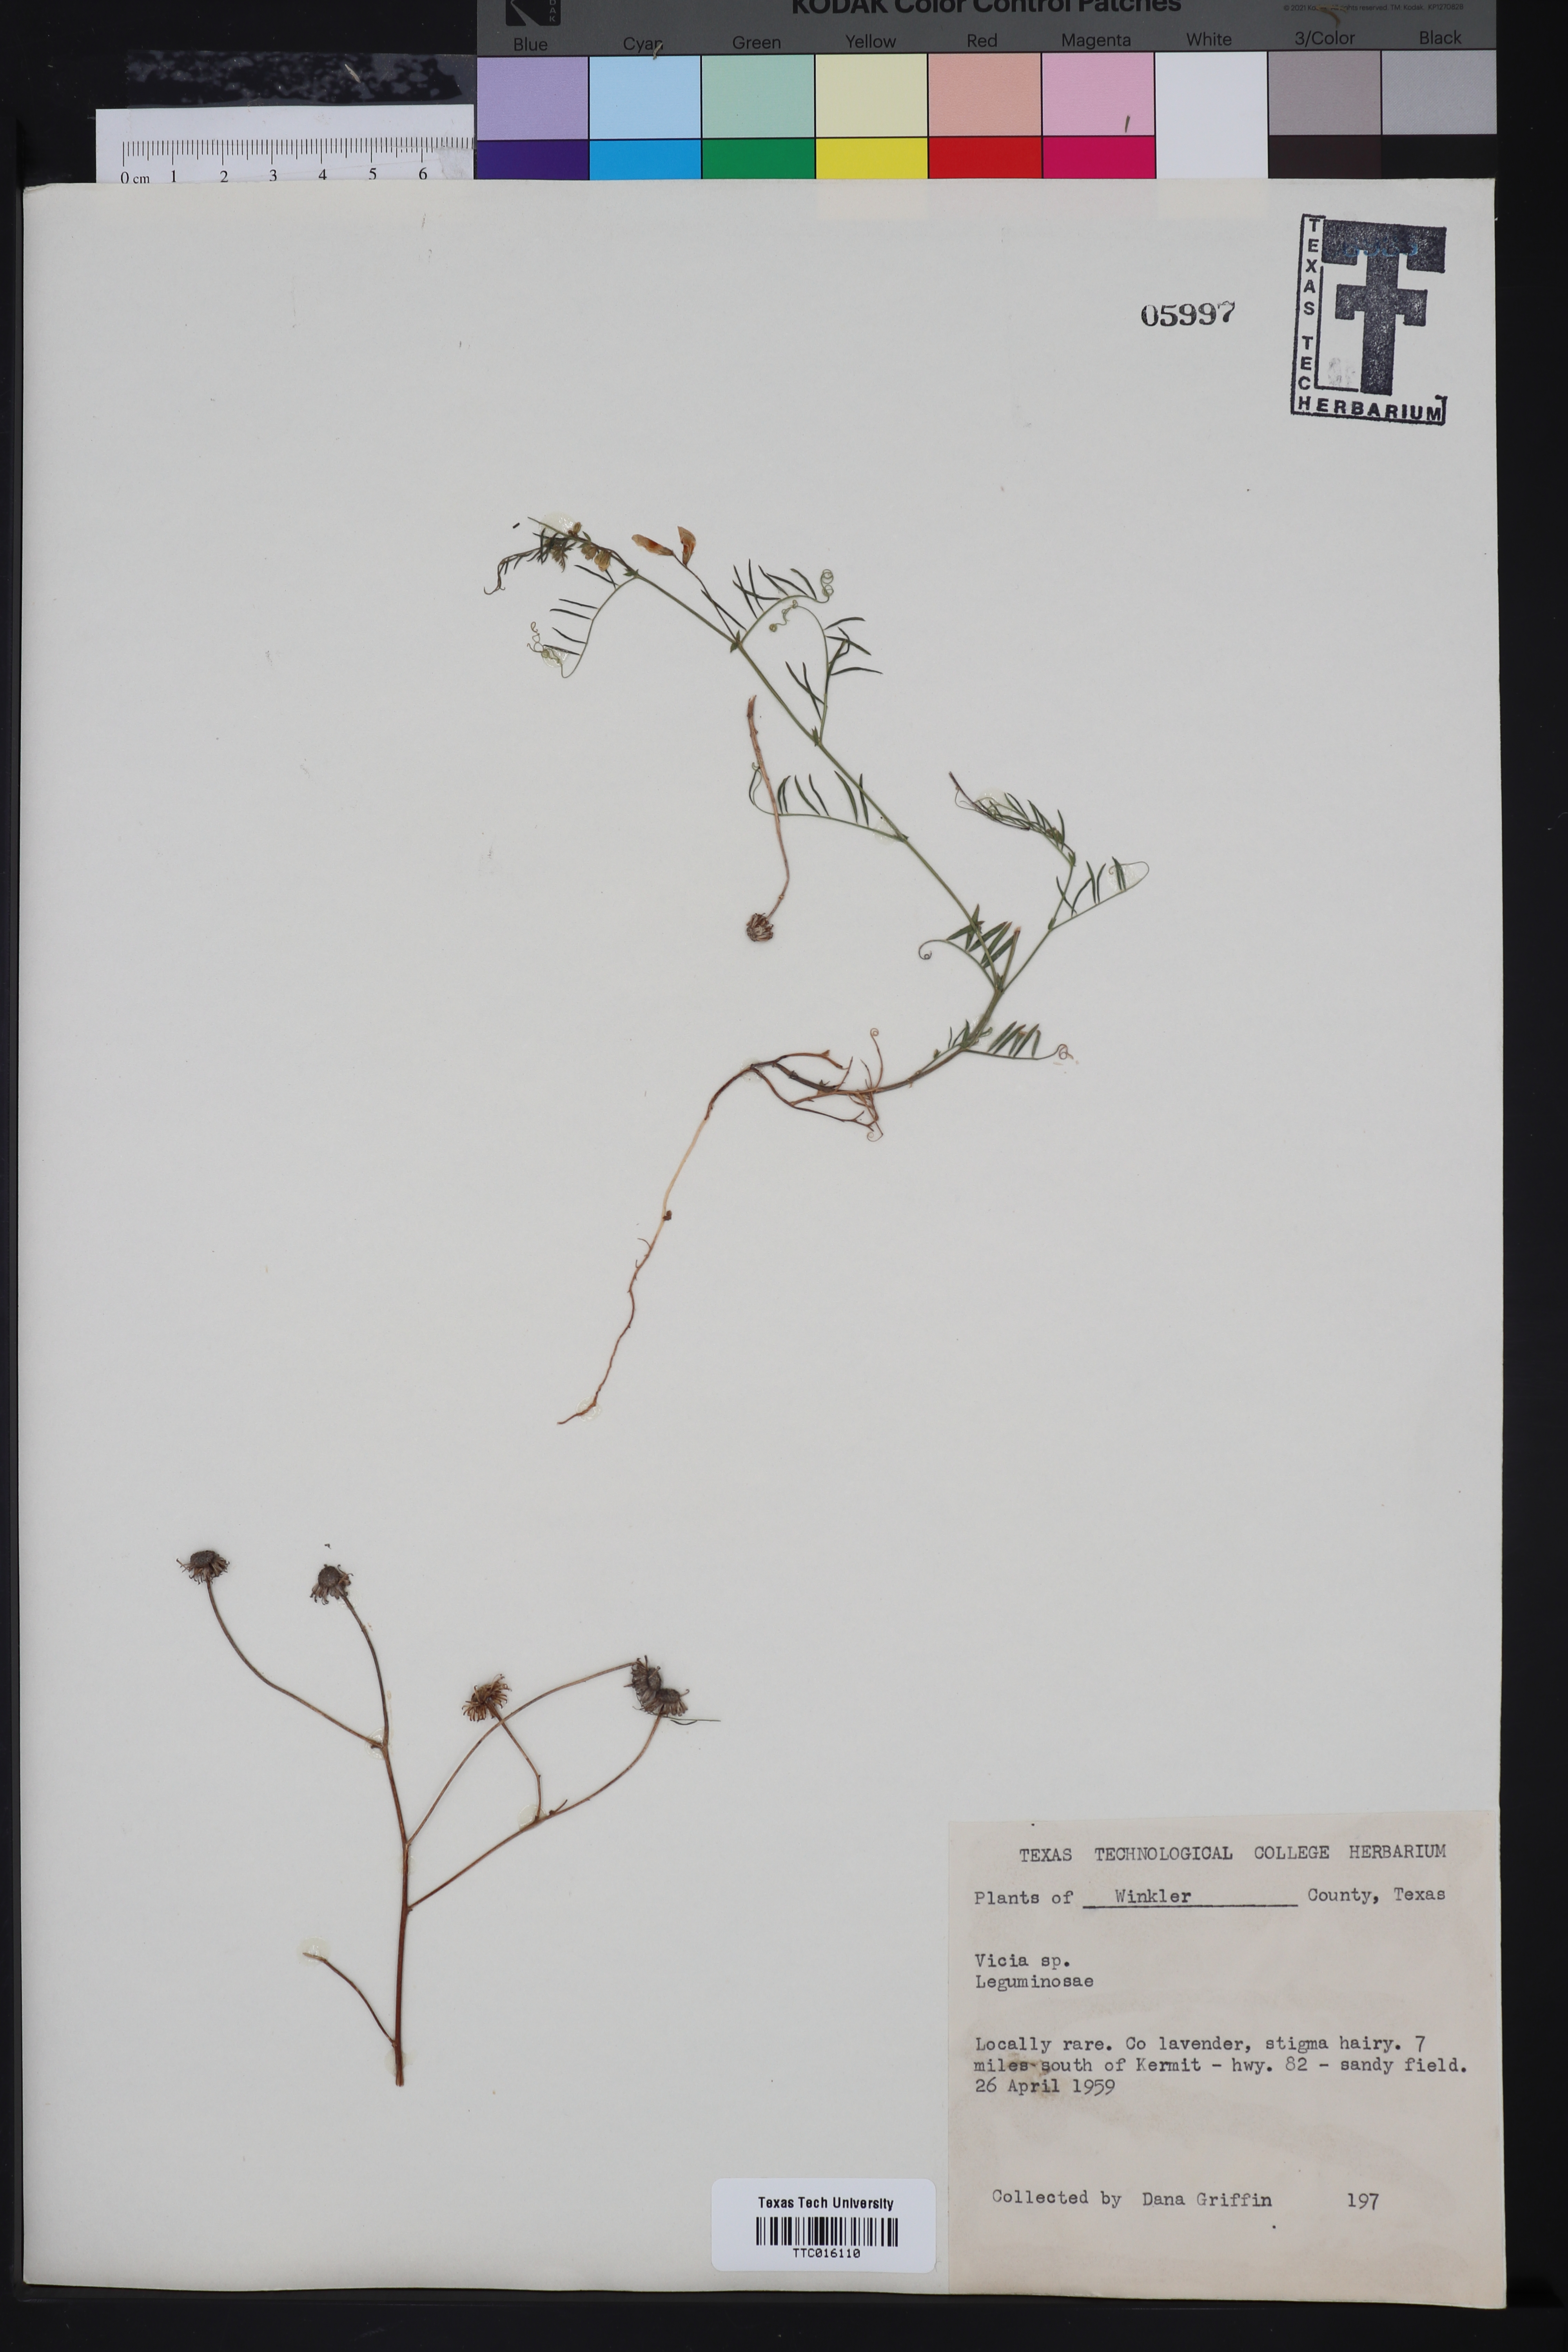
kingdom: Plantae
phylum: Tracheophyta
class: Magnoliopsida
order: Fabales
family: Fabaceae
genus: Vicia
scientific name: Vicia
